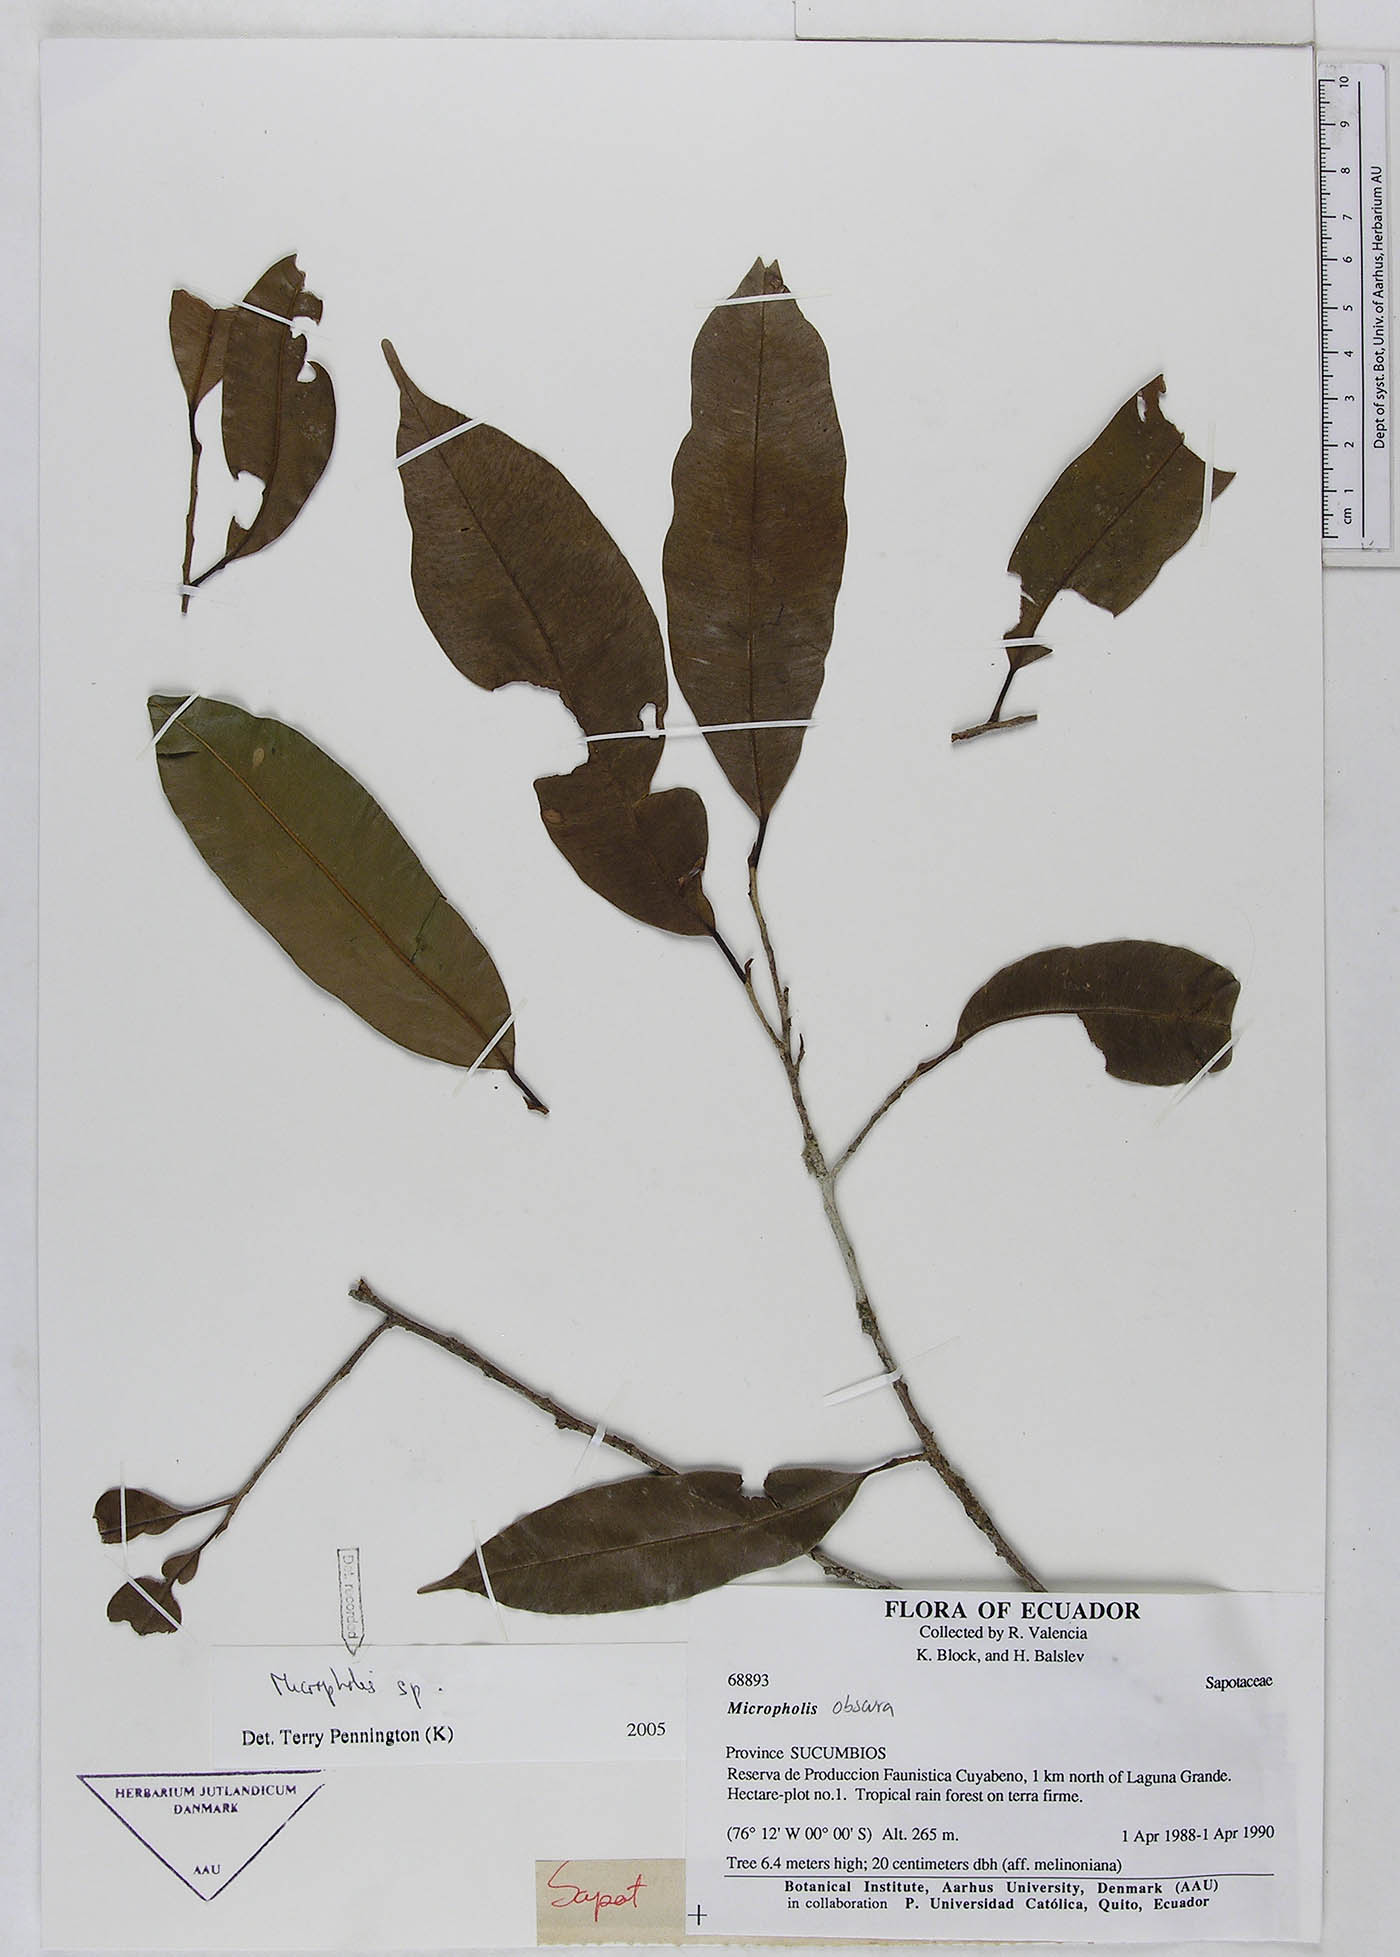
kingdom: Plantae
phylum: Tracheophyta
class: Magnoliopsida
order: Ericales
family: Sapotaceae
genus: Pouteria
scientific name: Pouteria
